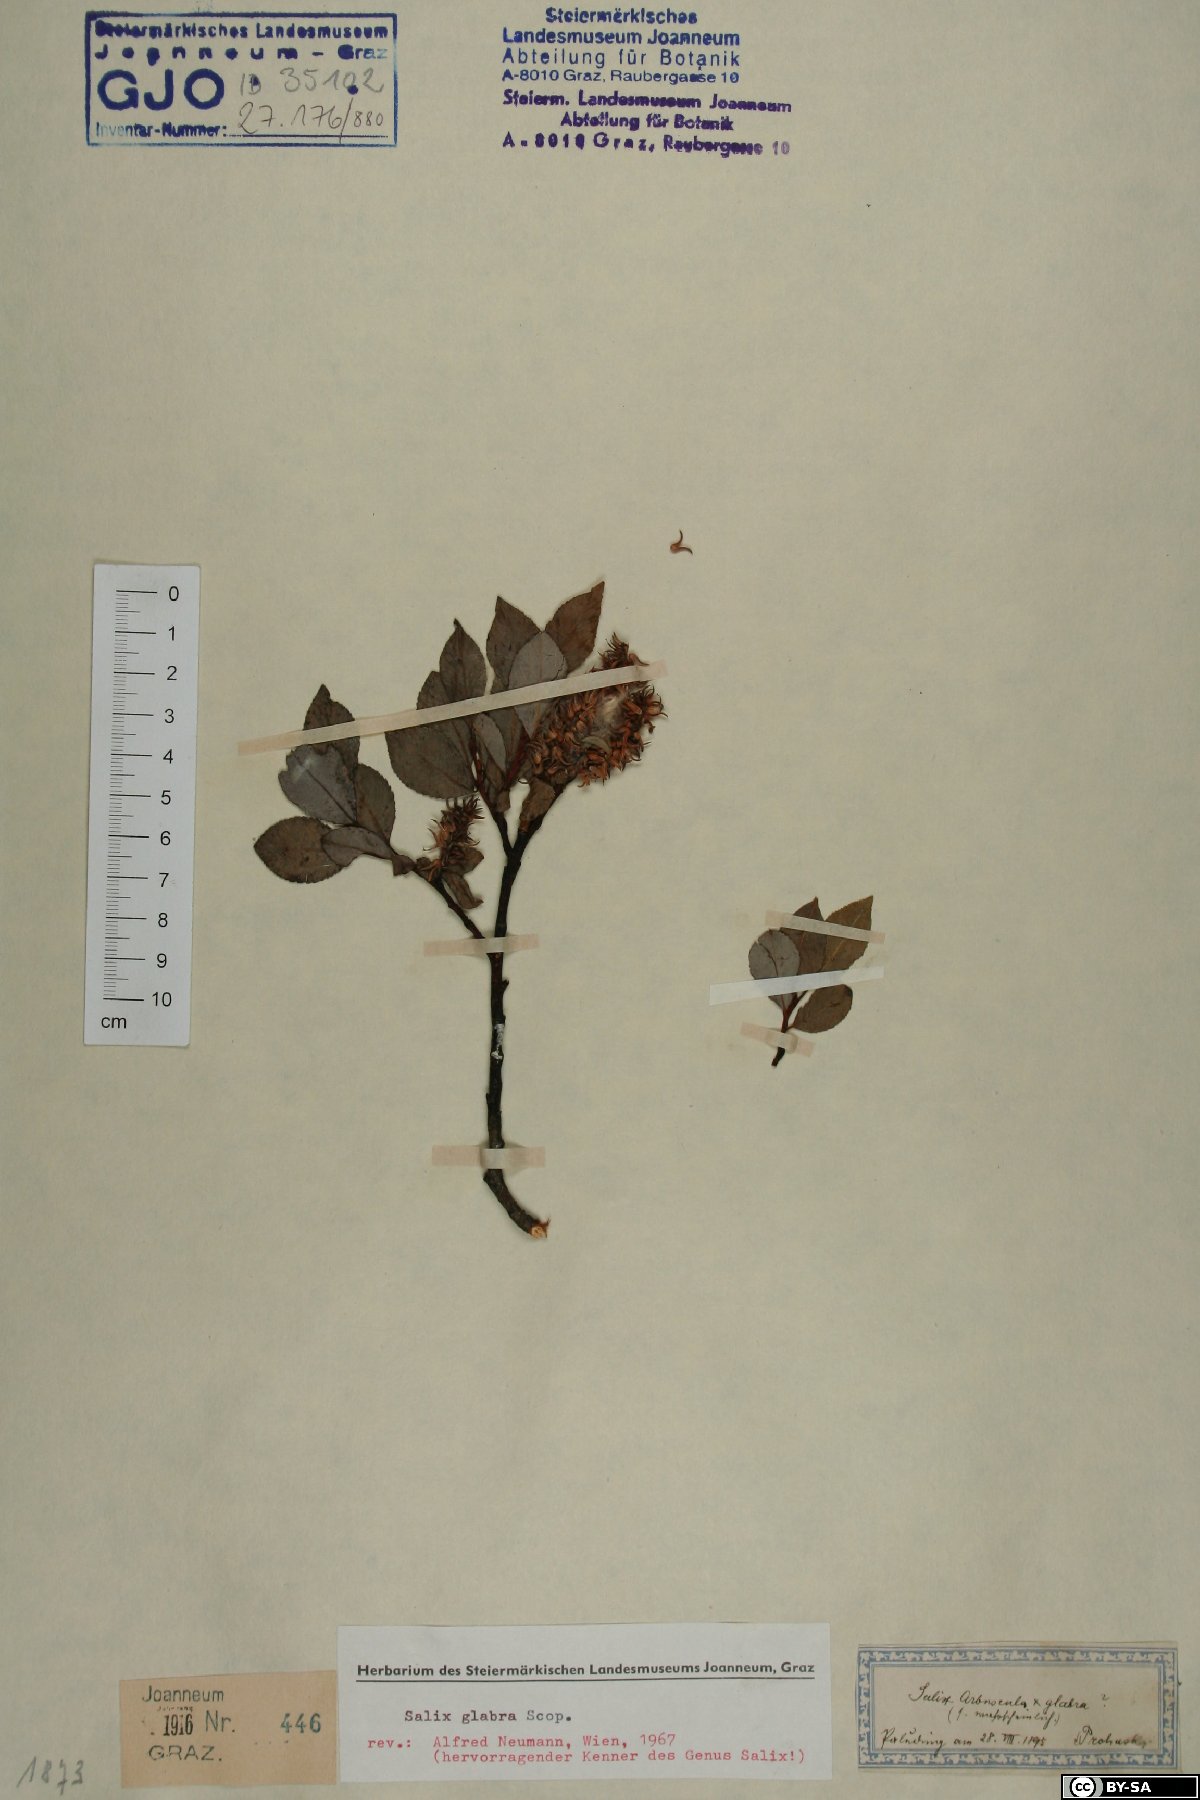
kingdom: Plantae
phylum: Tracheophyta
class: Magnoliopsida
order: Malpighiales
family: Salicaceae
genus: Salix
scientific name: Salix glabra
